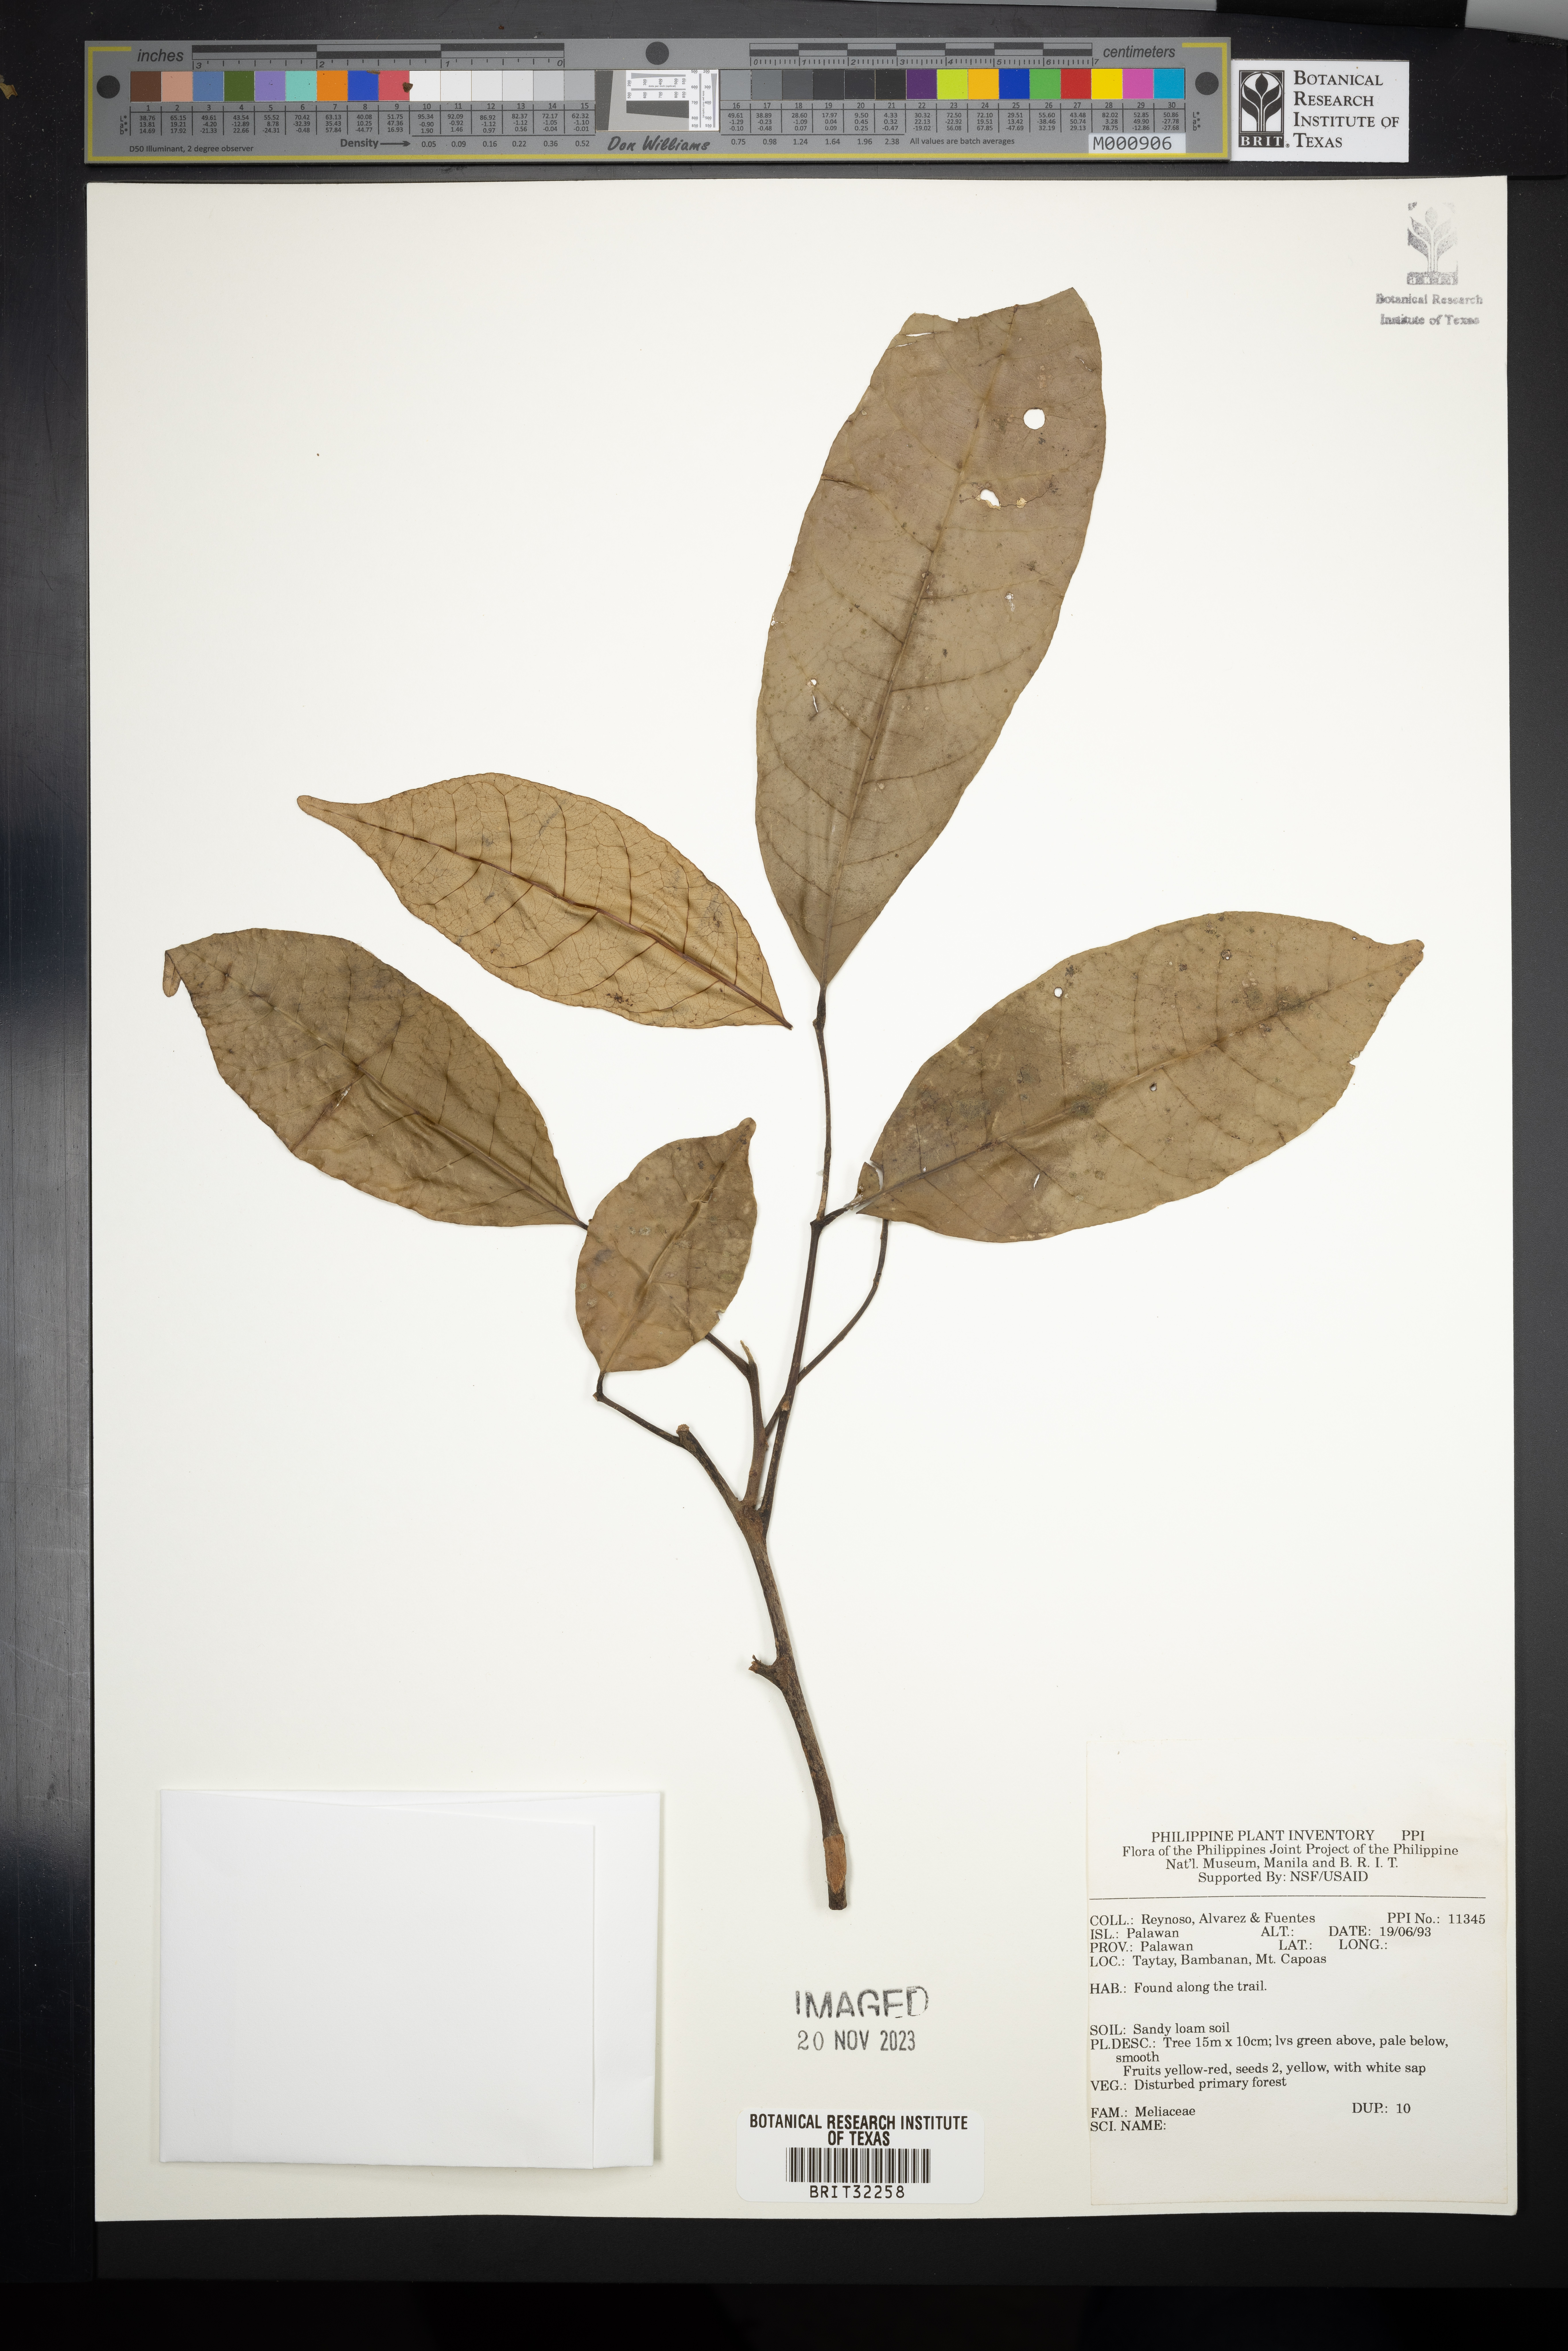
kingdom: Plantae
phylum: Tracheophyta
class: Magnoliopsida
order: Sapindales
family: Meliaceae
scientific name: Meliaceae
